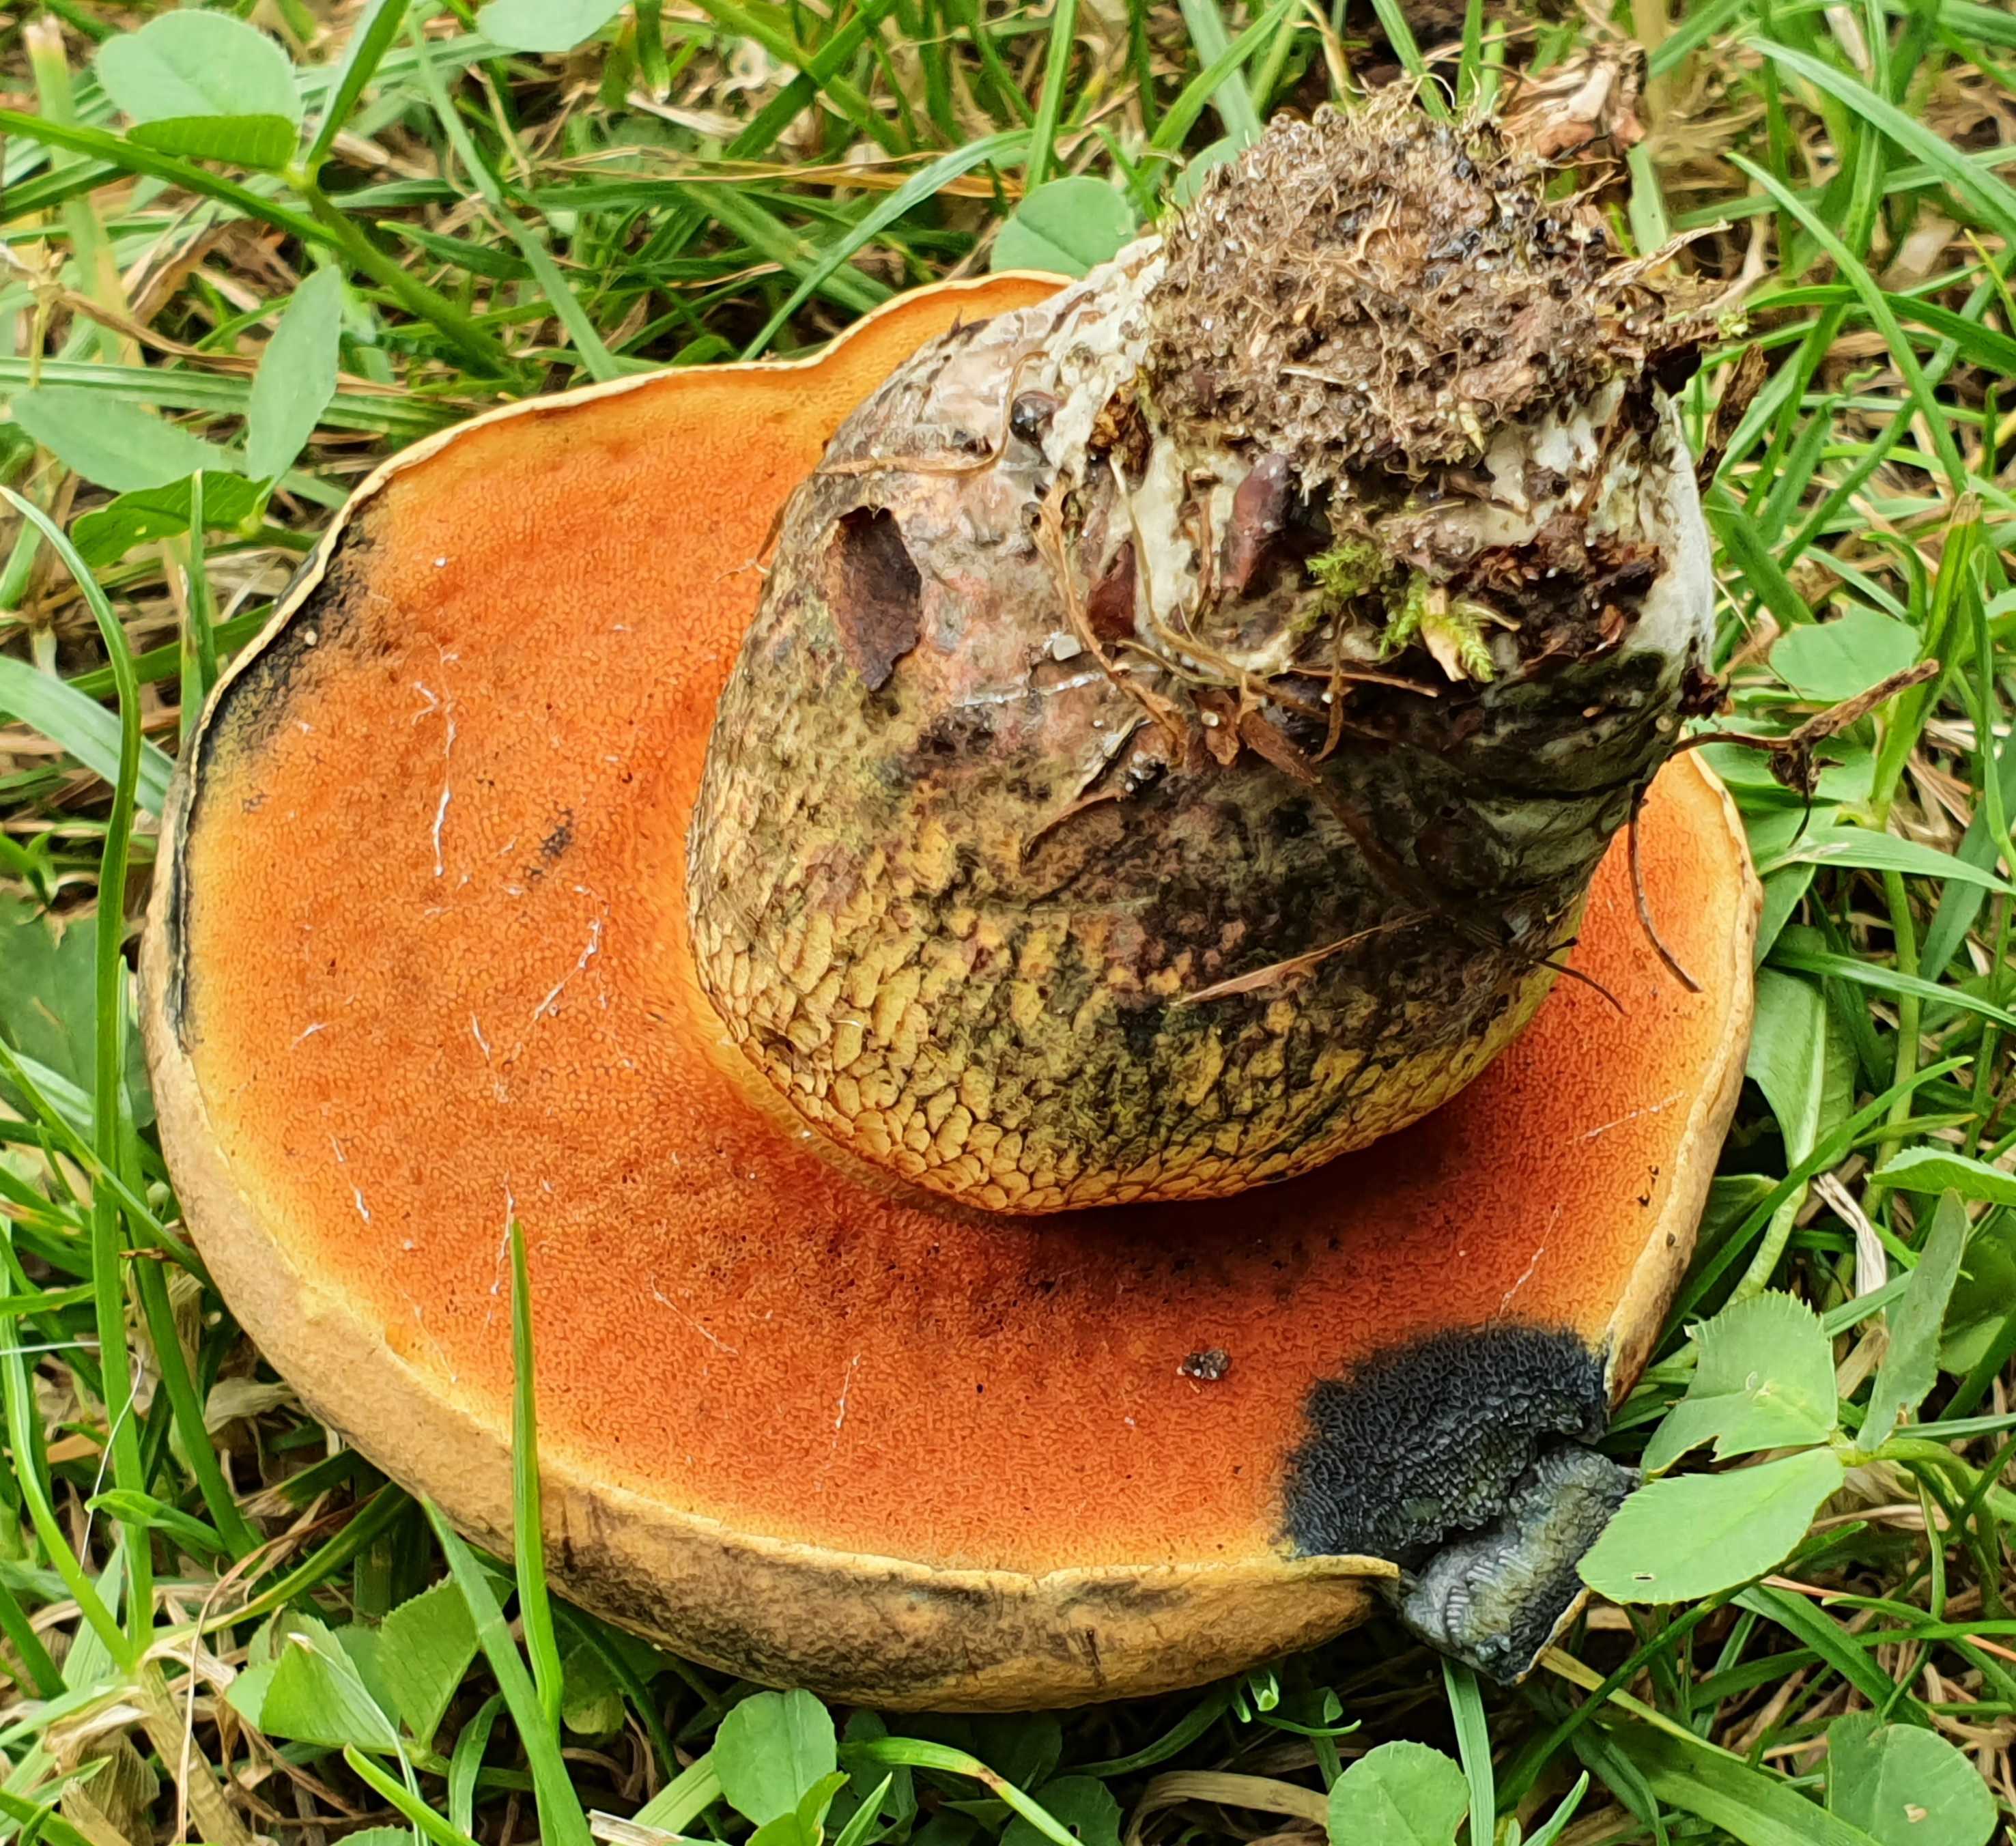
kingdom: Fungi
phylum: Basidiomycota
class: Agaricomycetes
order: Boletales
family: Boletaceae
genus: Suillellus
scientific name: Suillellus luridus
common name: netstokket indigorørhat
